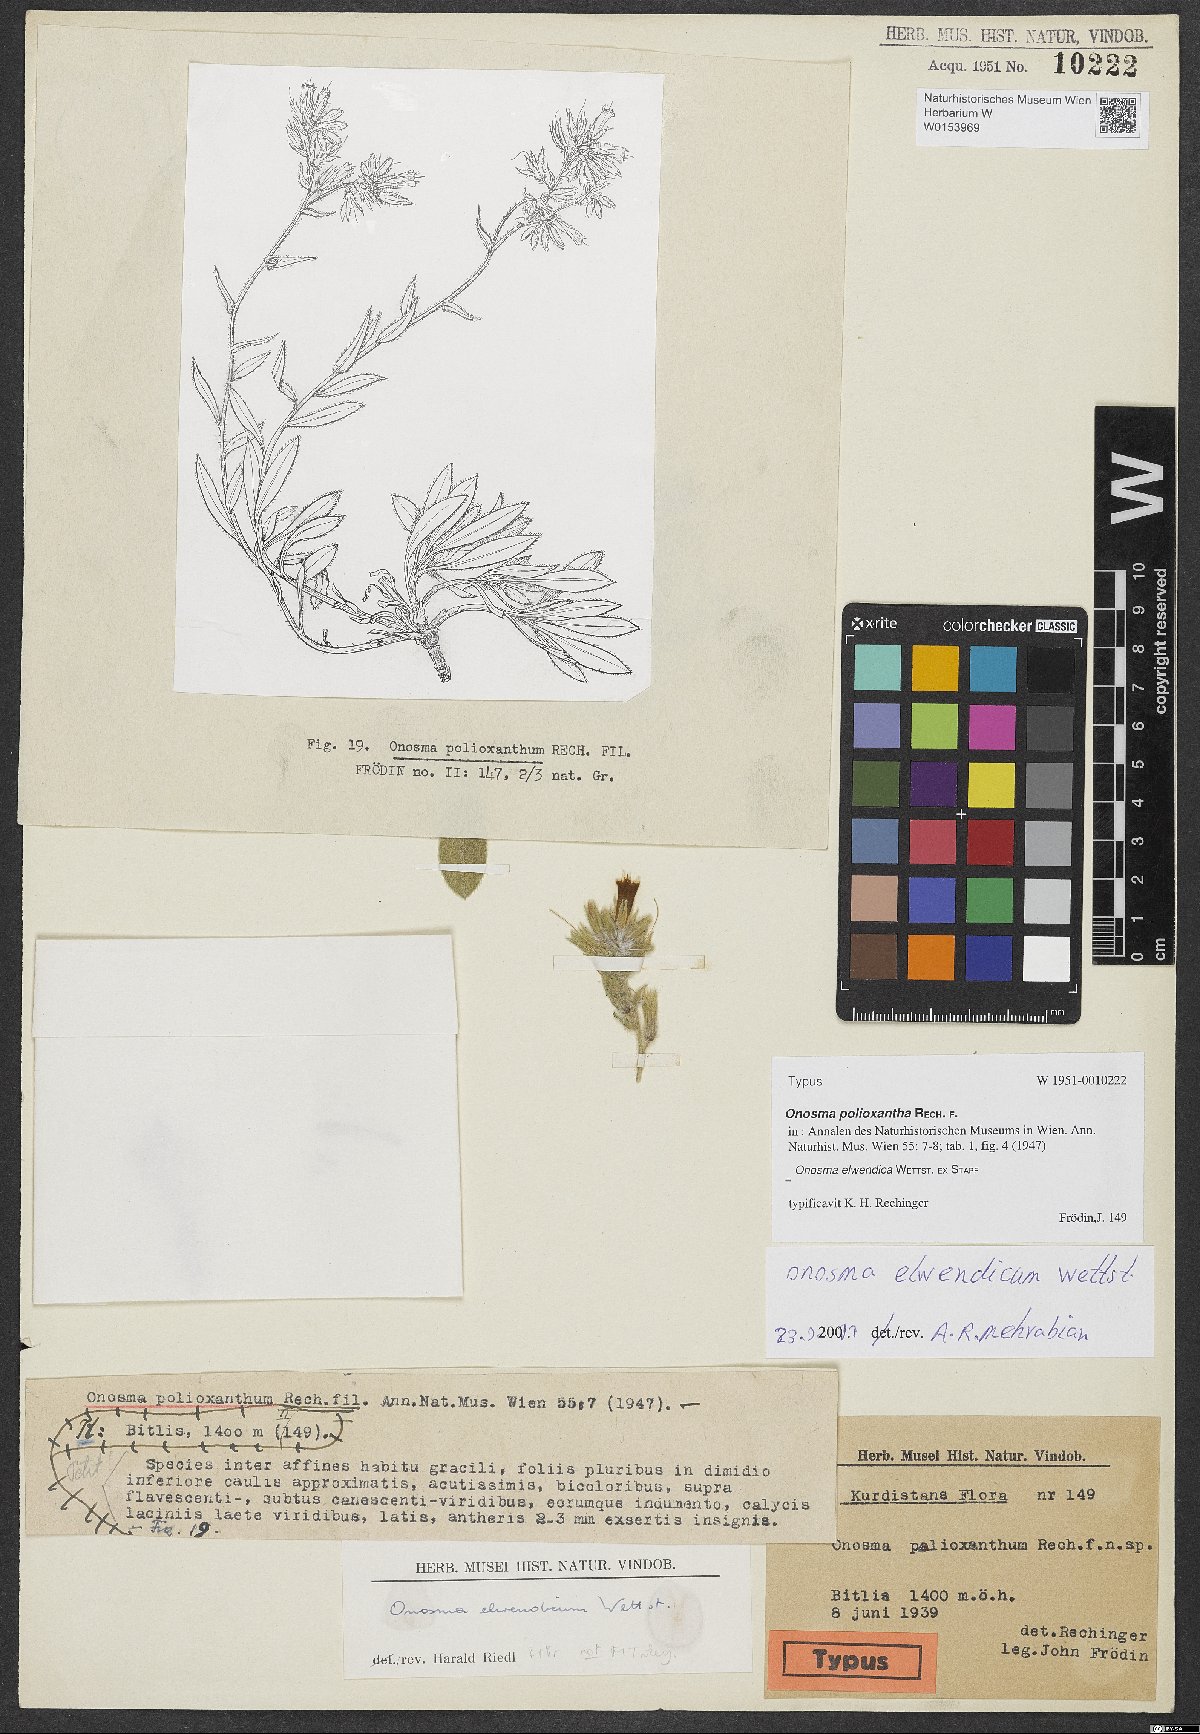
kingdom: Plantae
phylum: Tracheophyta
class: Magnoliopsida
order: Boraginales
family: Boraginaceae
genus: Onosma
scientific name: Onosma polioxantha
